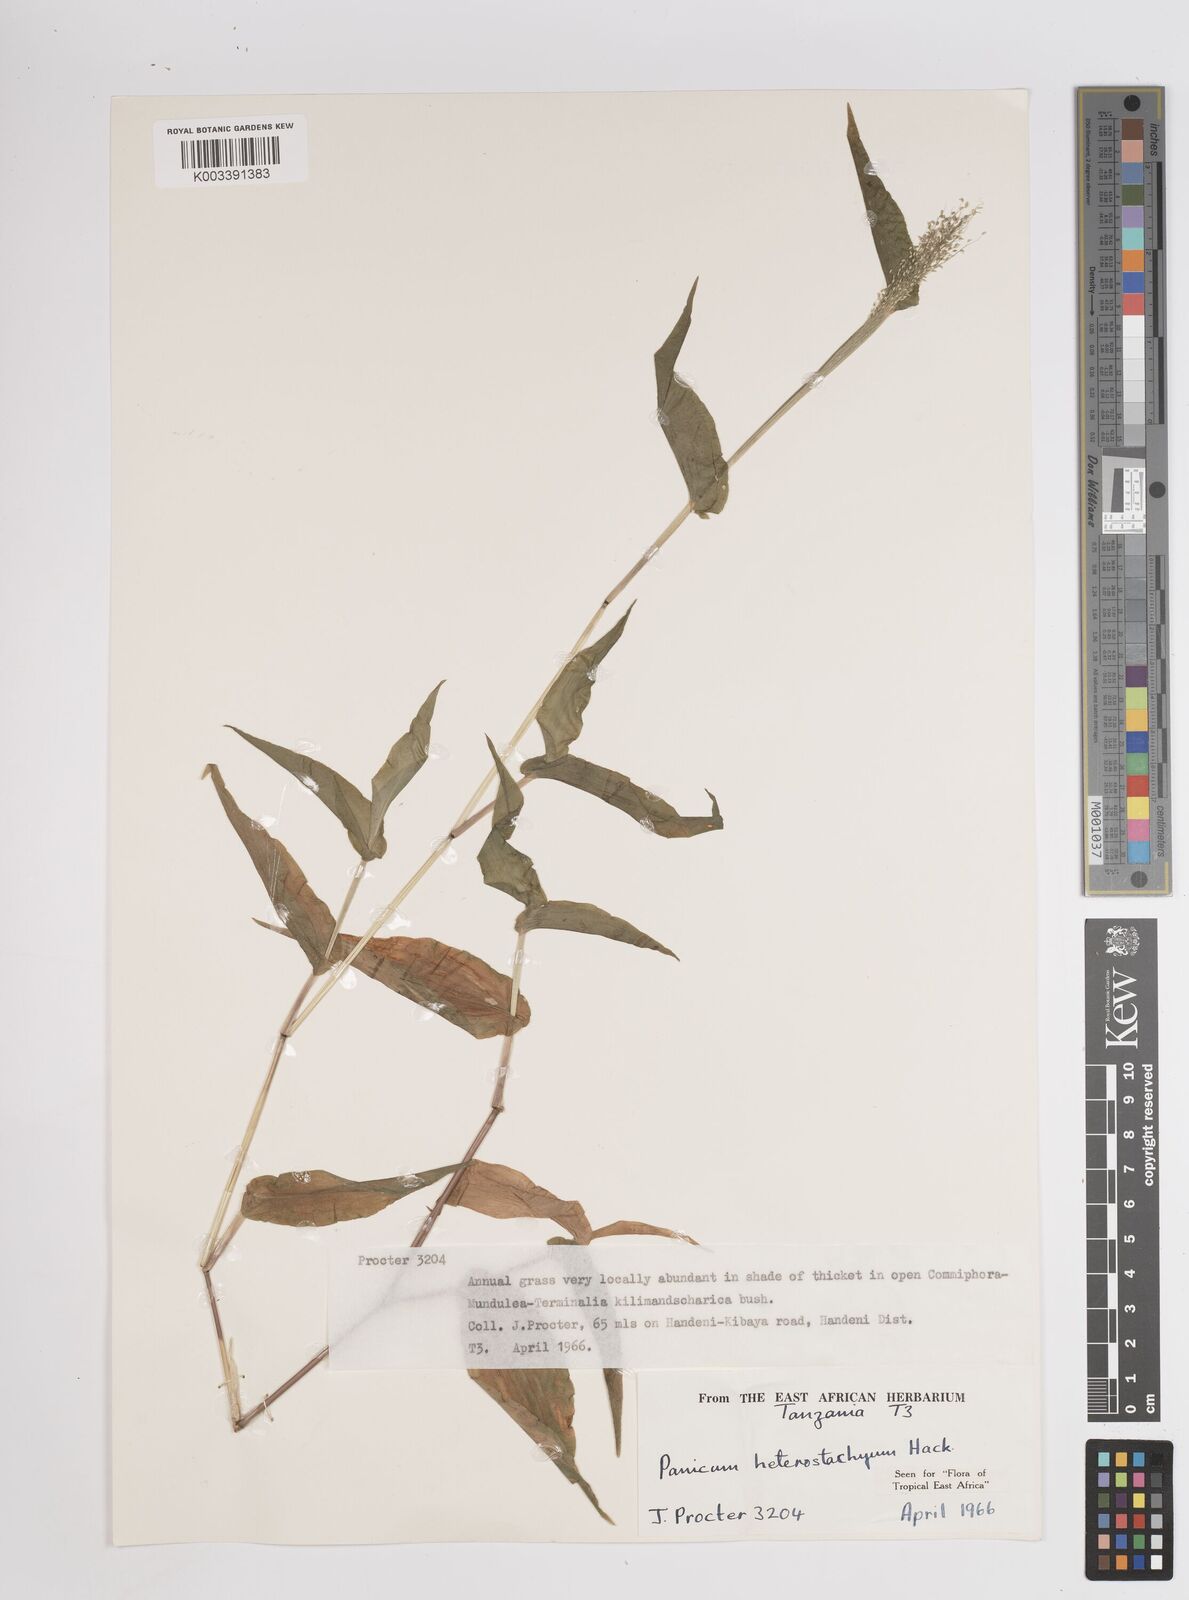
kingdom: Plantae
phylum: Tracheophyta
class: Liliopsida
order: Poales
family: Poaceae
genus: Panicum
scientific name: Panicum hirtum
